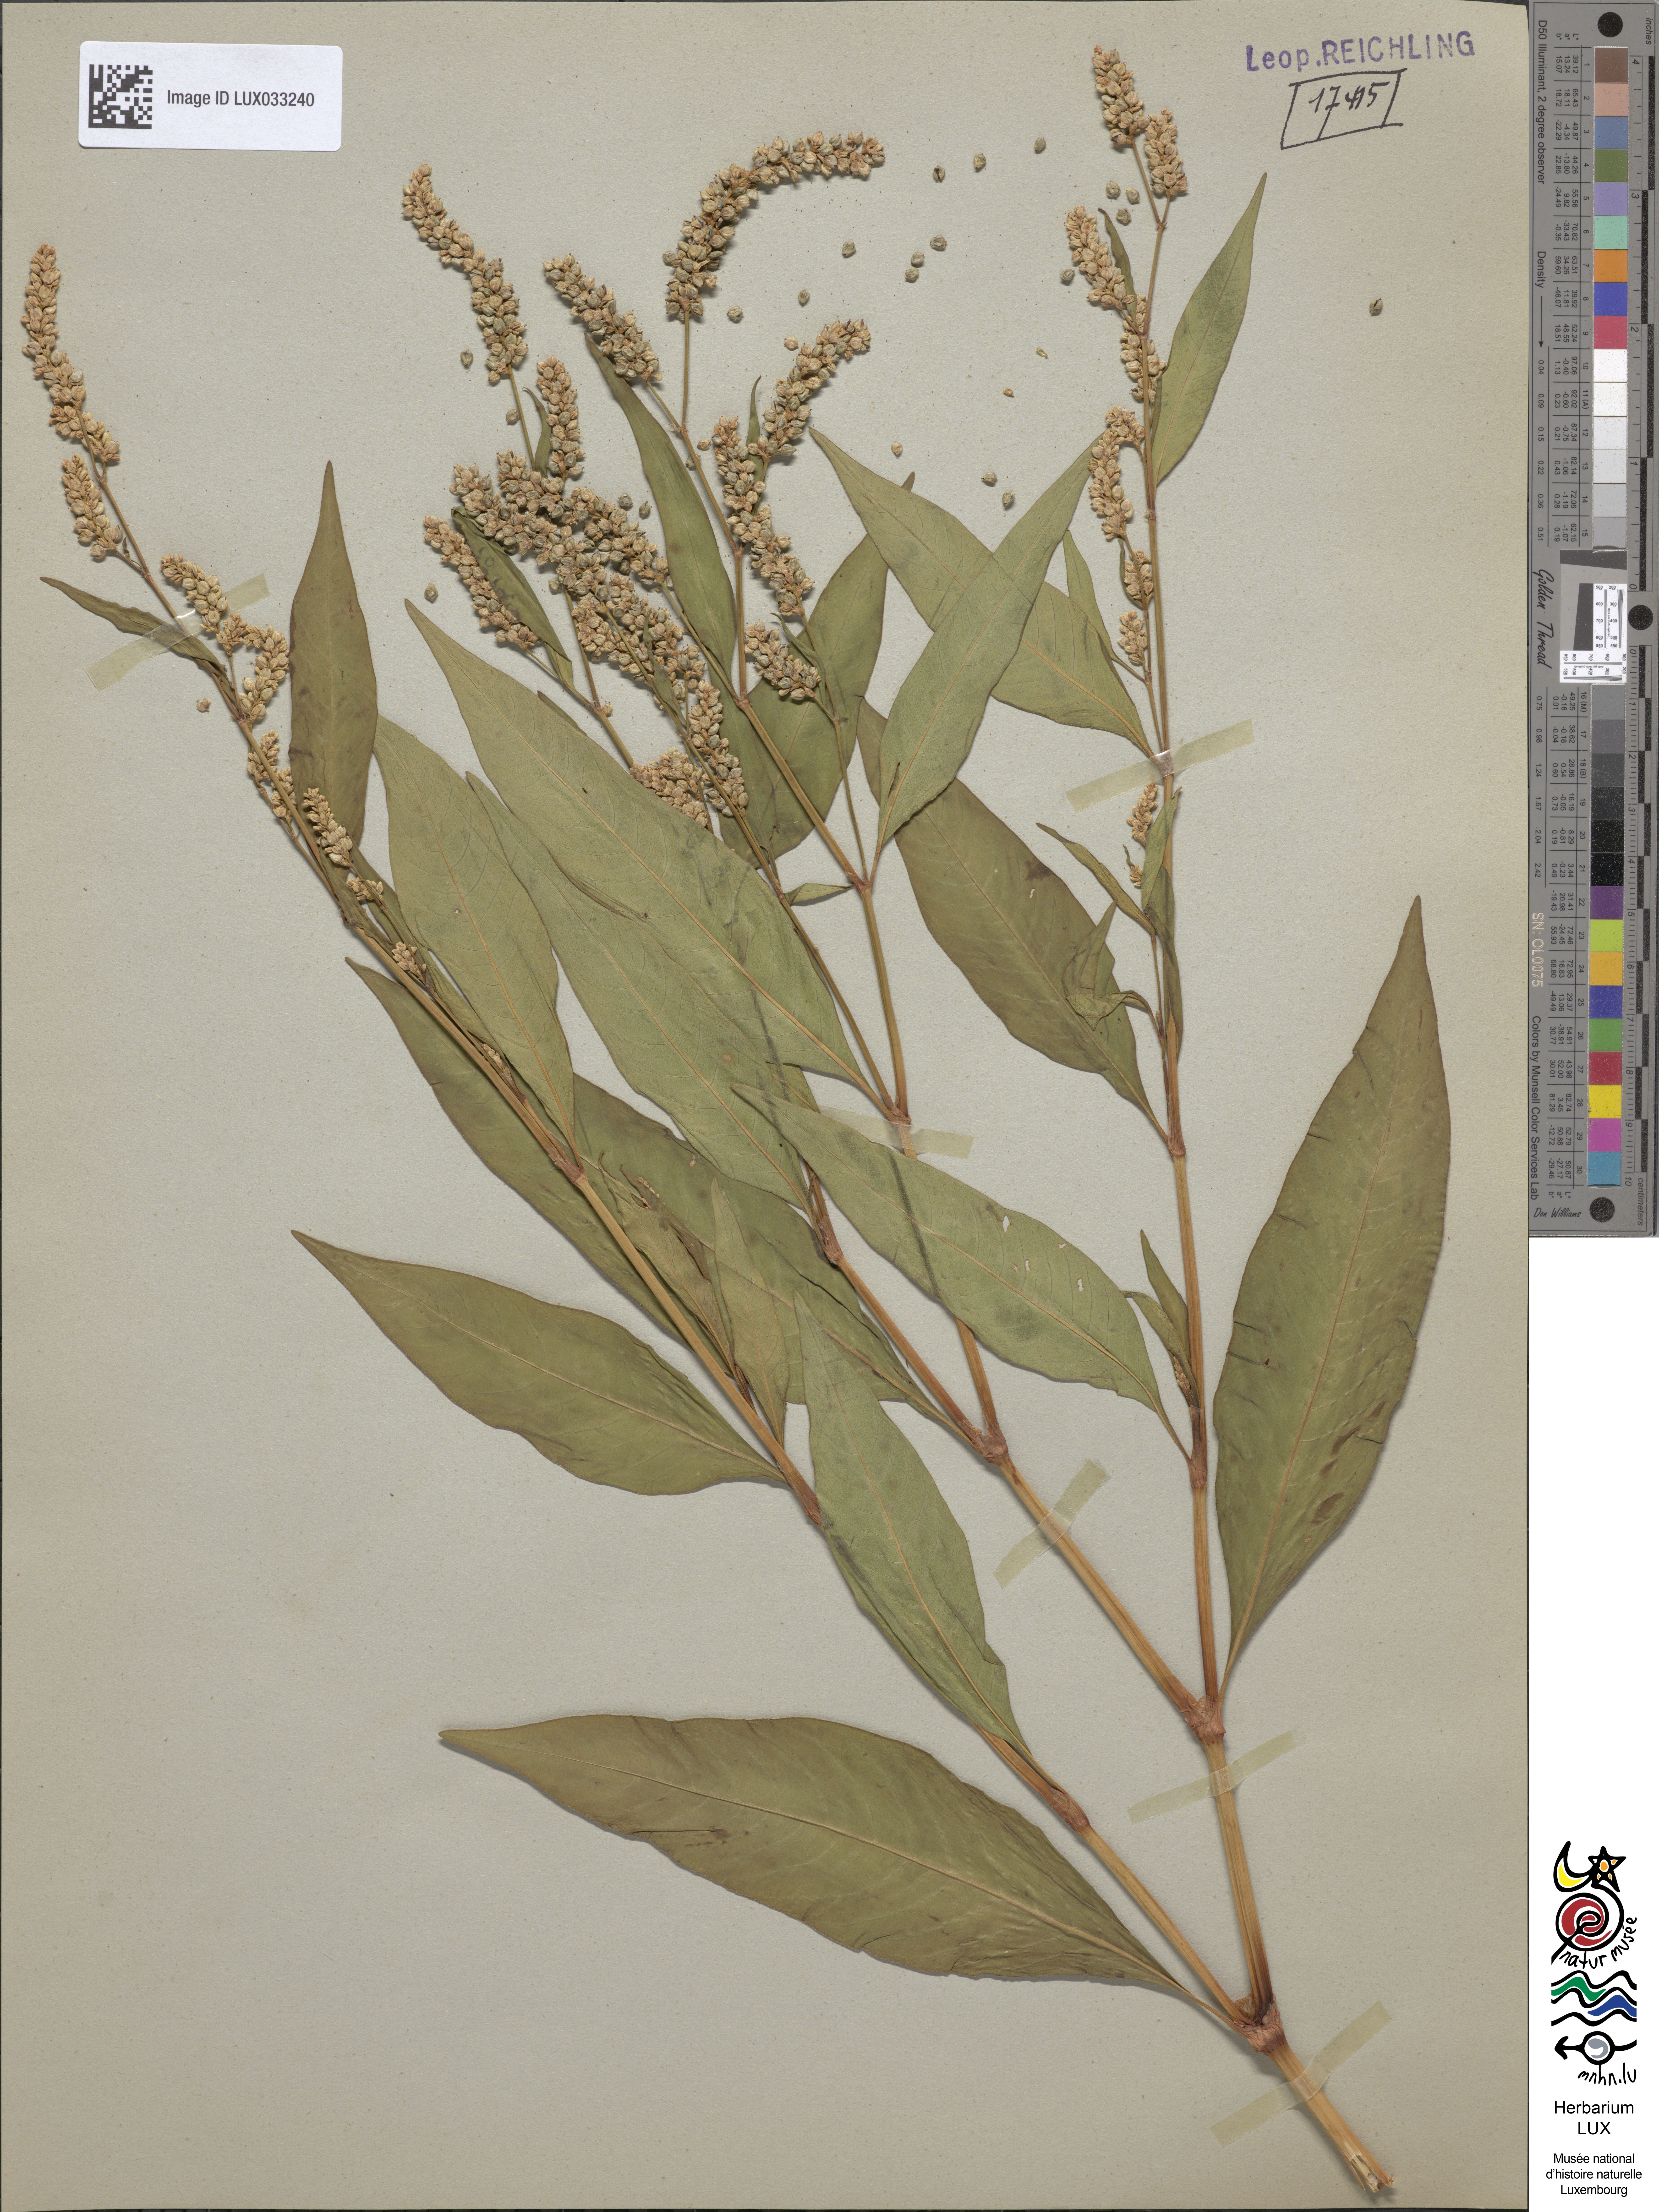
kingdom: Plantae
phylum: Tracheophyta
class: Magnoliopsida
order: Caryophyllales
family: Polygonaceae
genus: Persicaria
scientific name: Persicaria lapathifolia
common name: Curlytop knotweed
